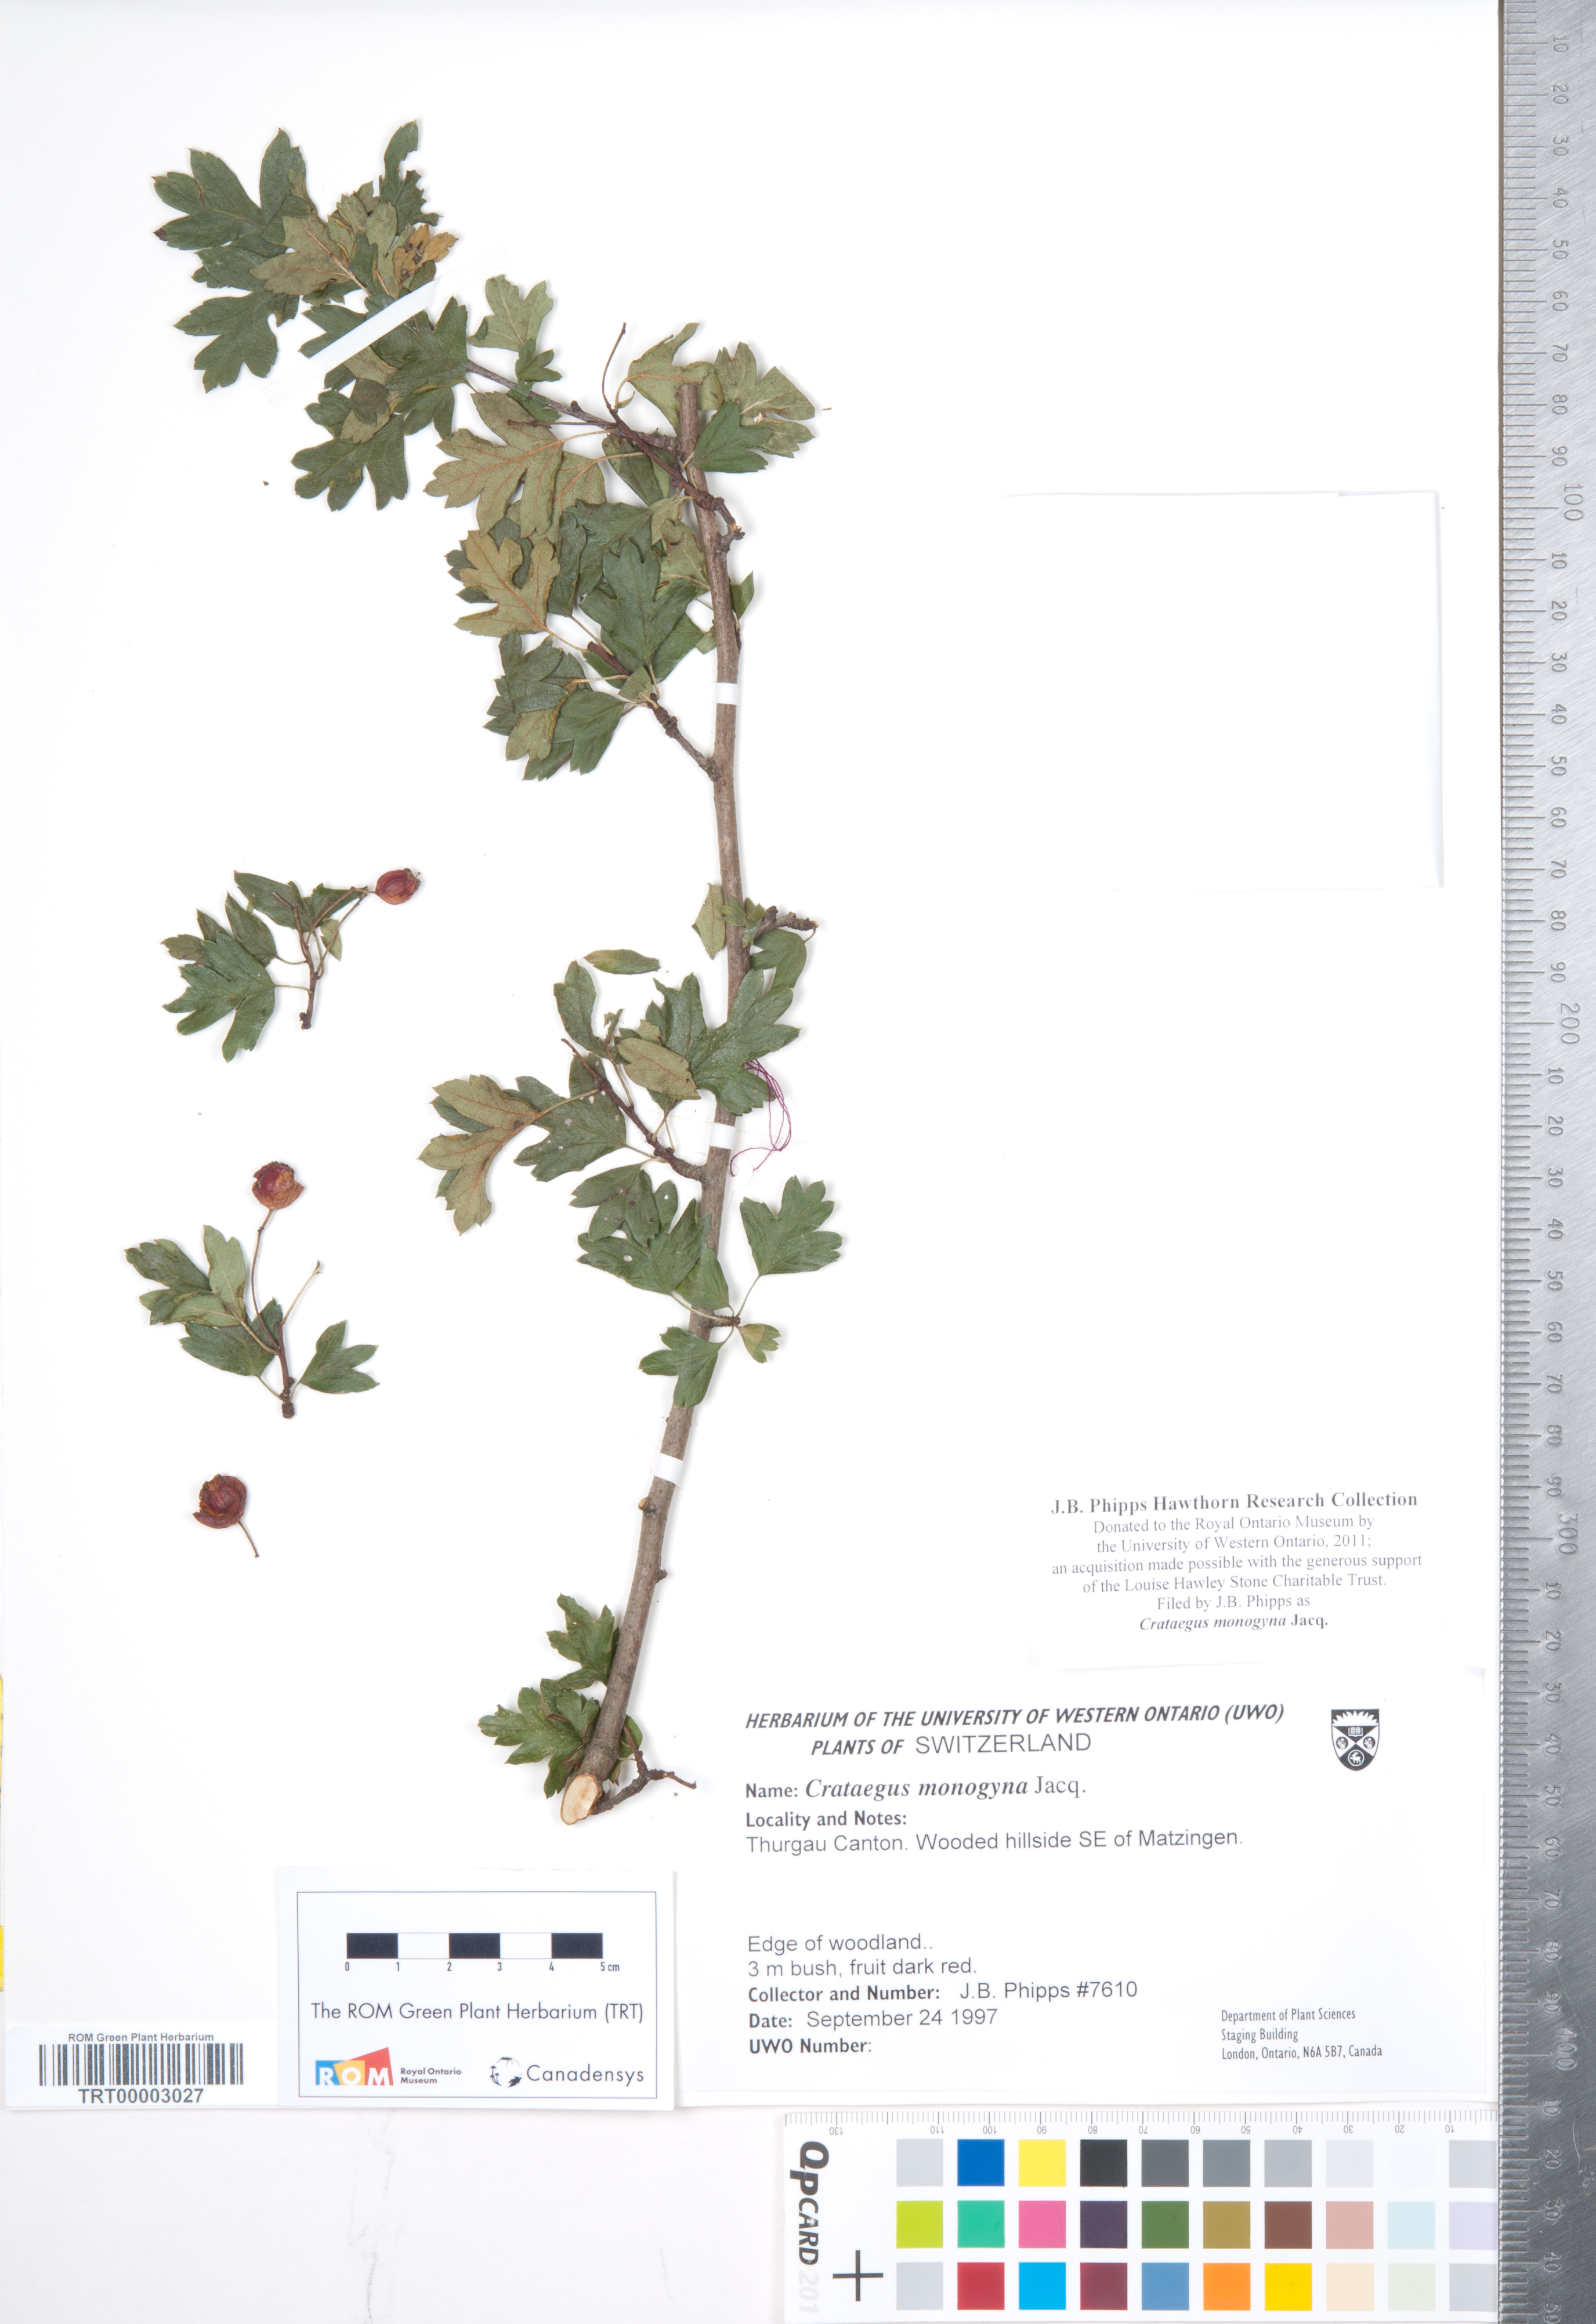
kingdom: Plantae
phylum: Tracheophyta
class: Magnoliopsida
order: Rosales
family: Rosaceae
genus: Crataegus
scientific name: Crataegus monogyna
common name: Hawthorn
